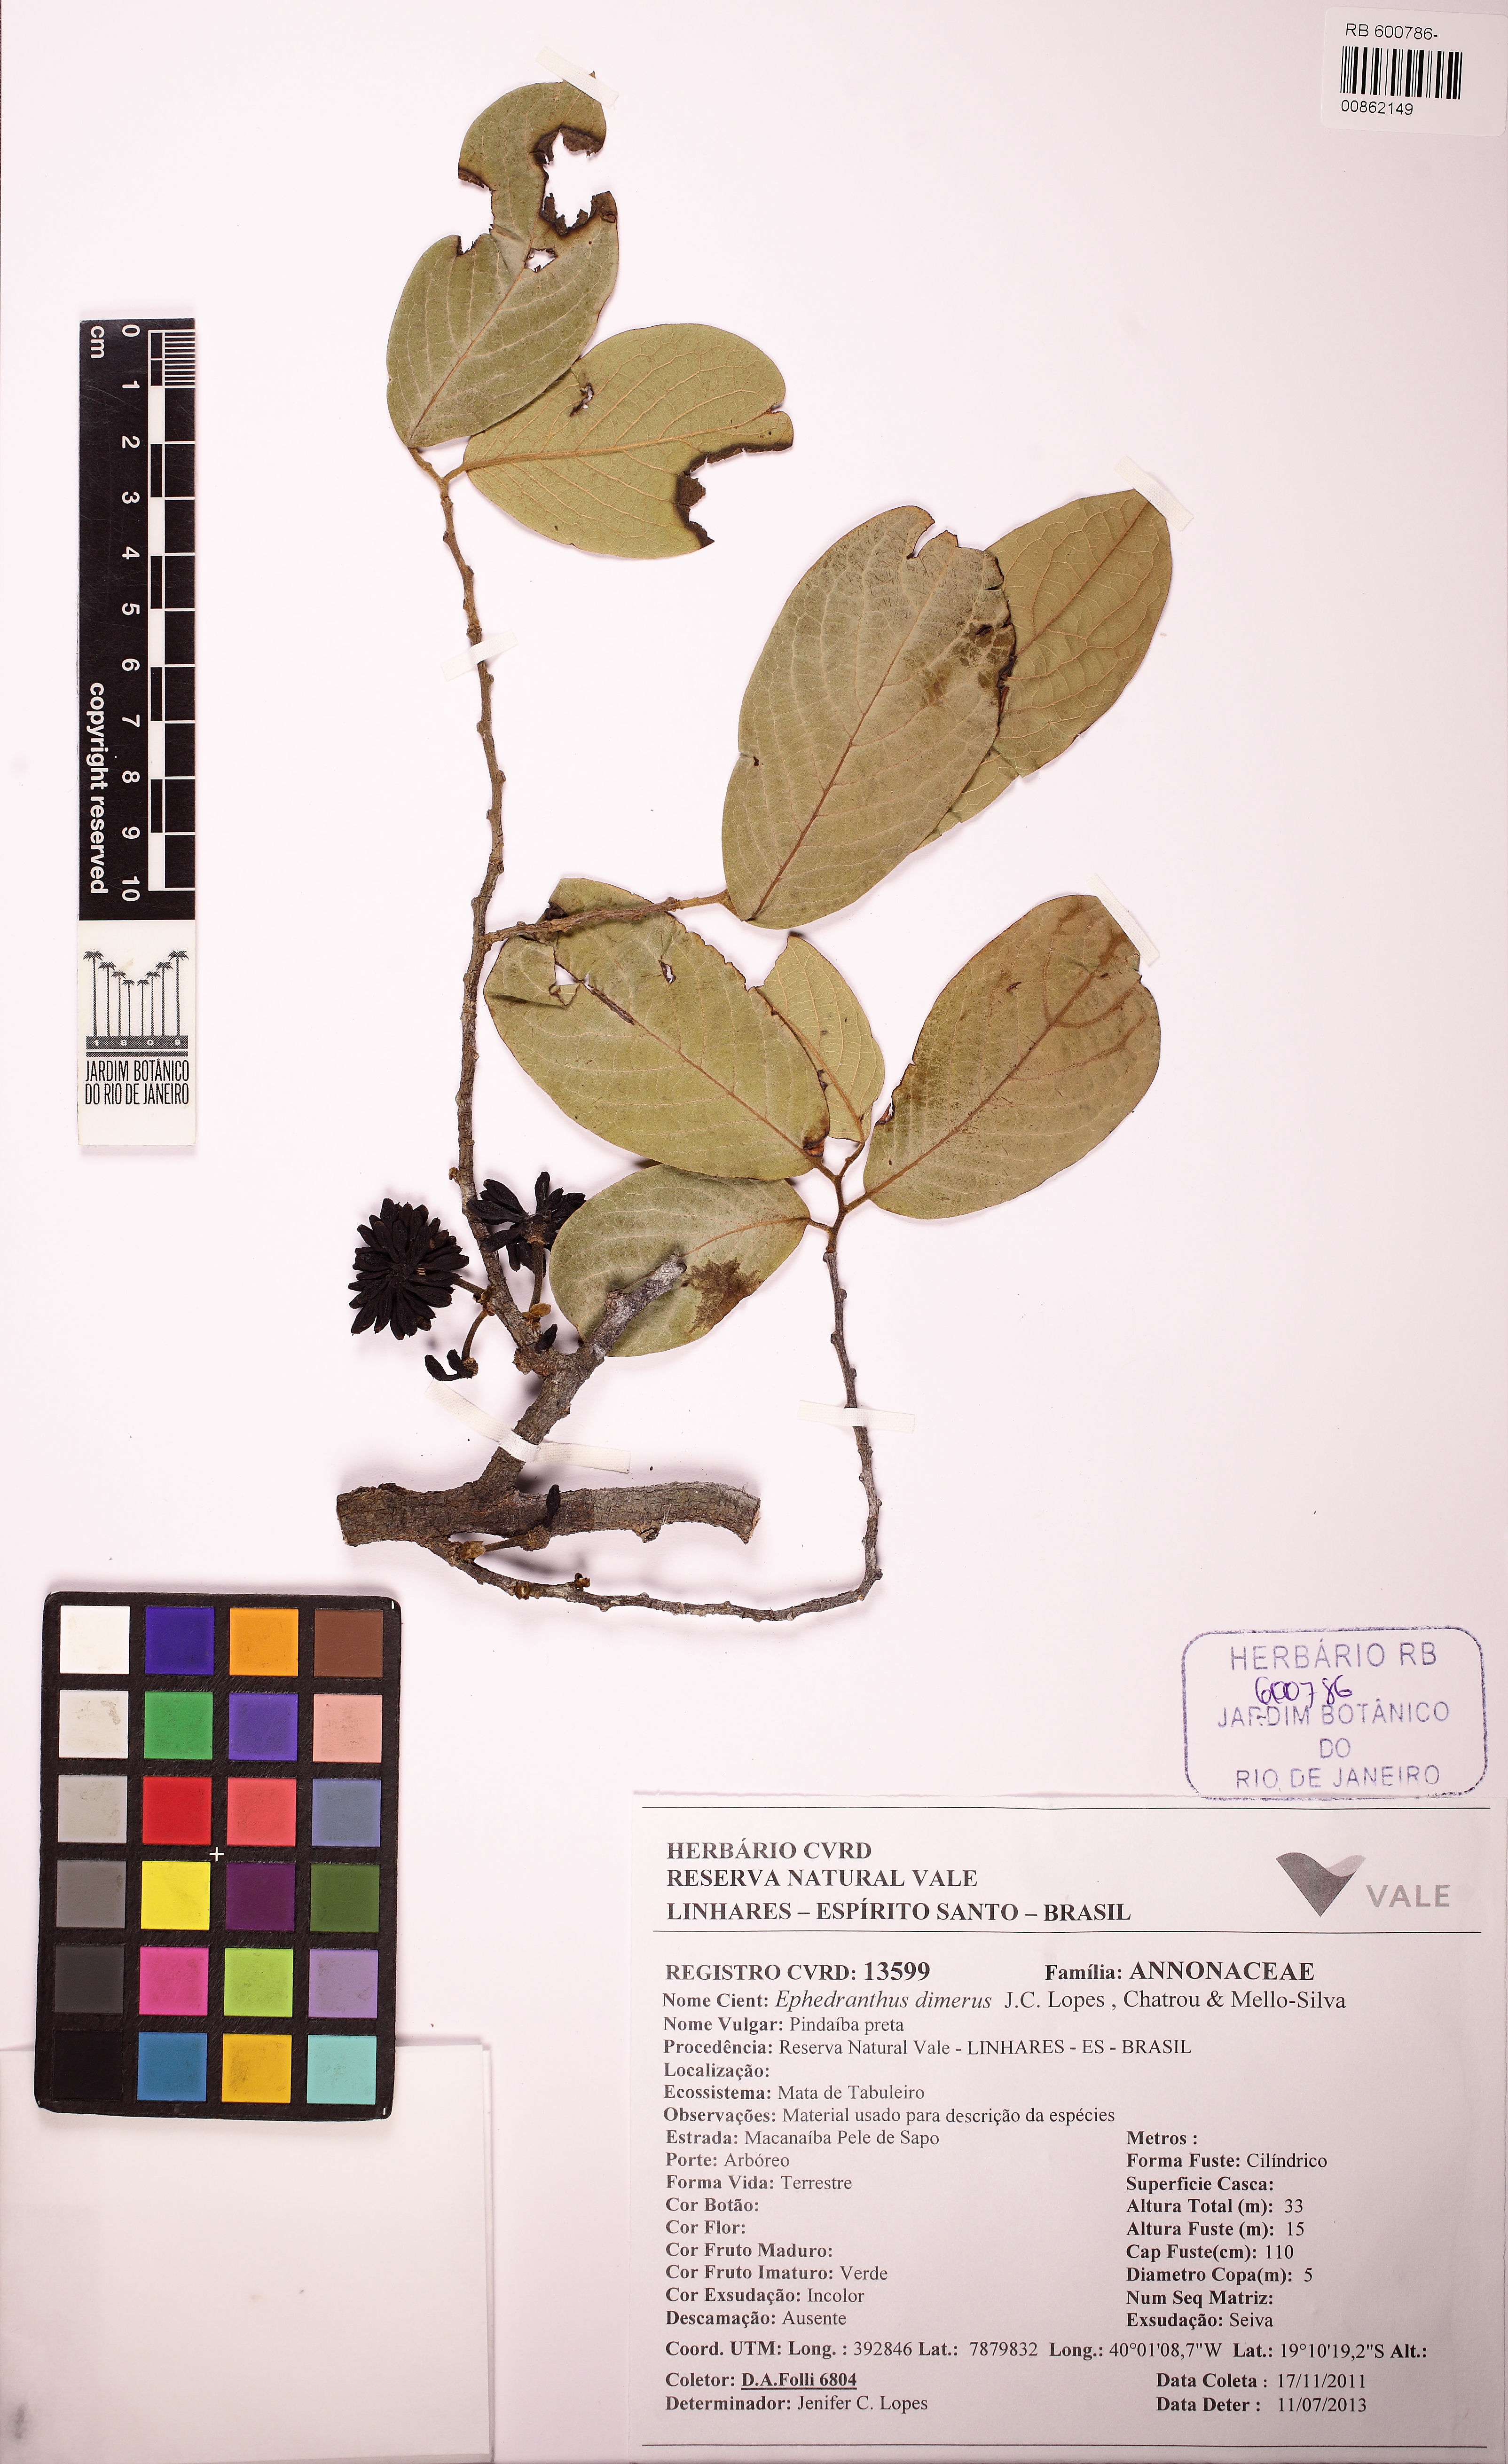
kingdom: Plantae
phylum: Tracheophyta
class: Magnoliopsida
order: Magnoliales
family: Annonaceae
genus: Ephedranthus
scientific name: Ephedranthus dimerus
